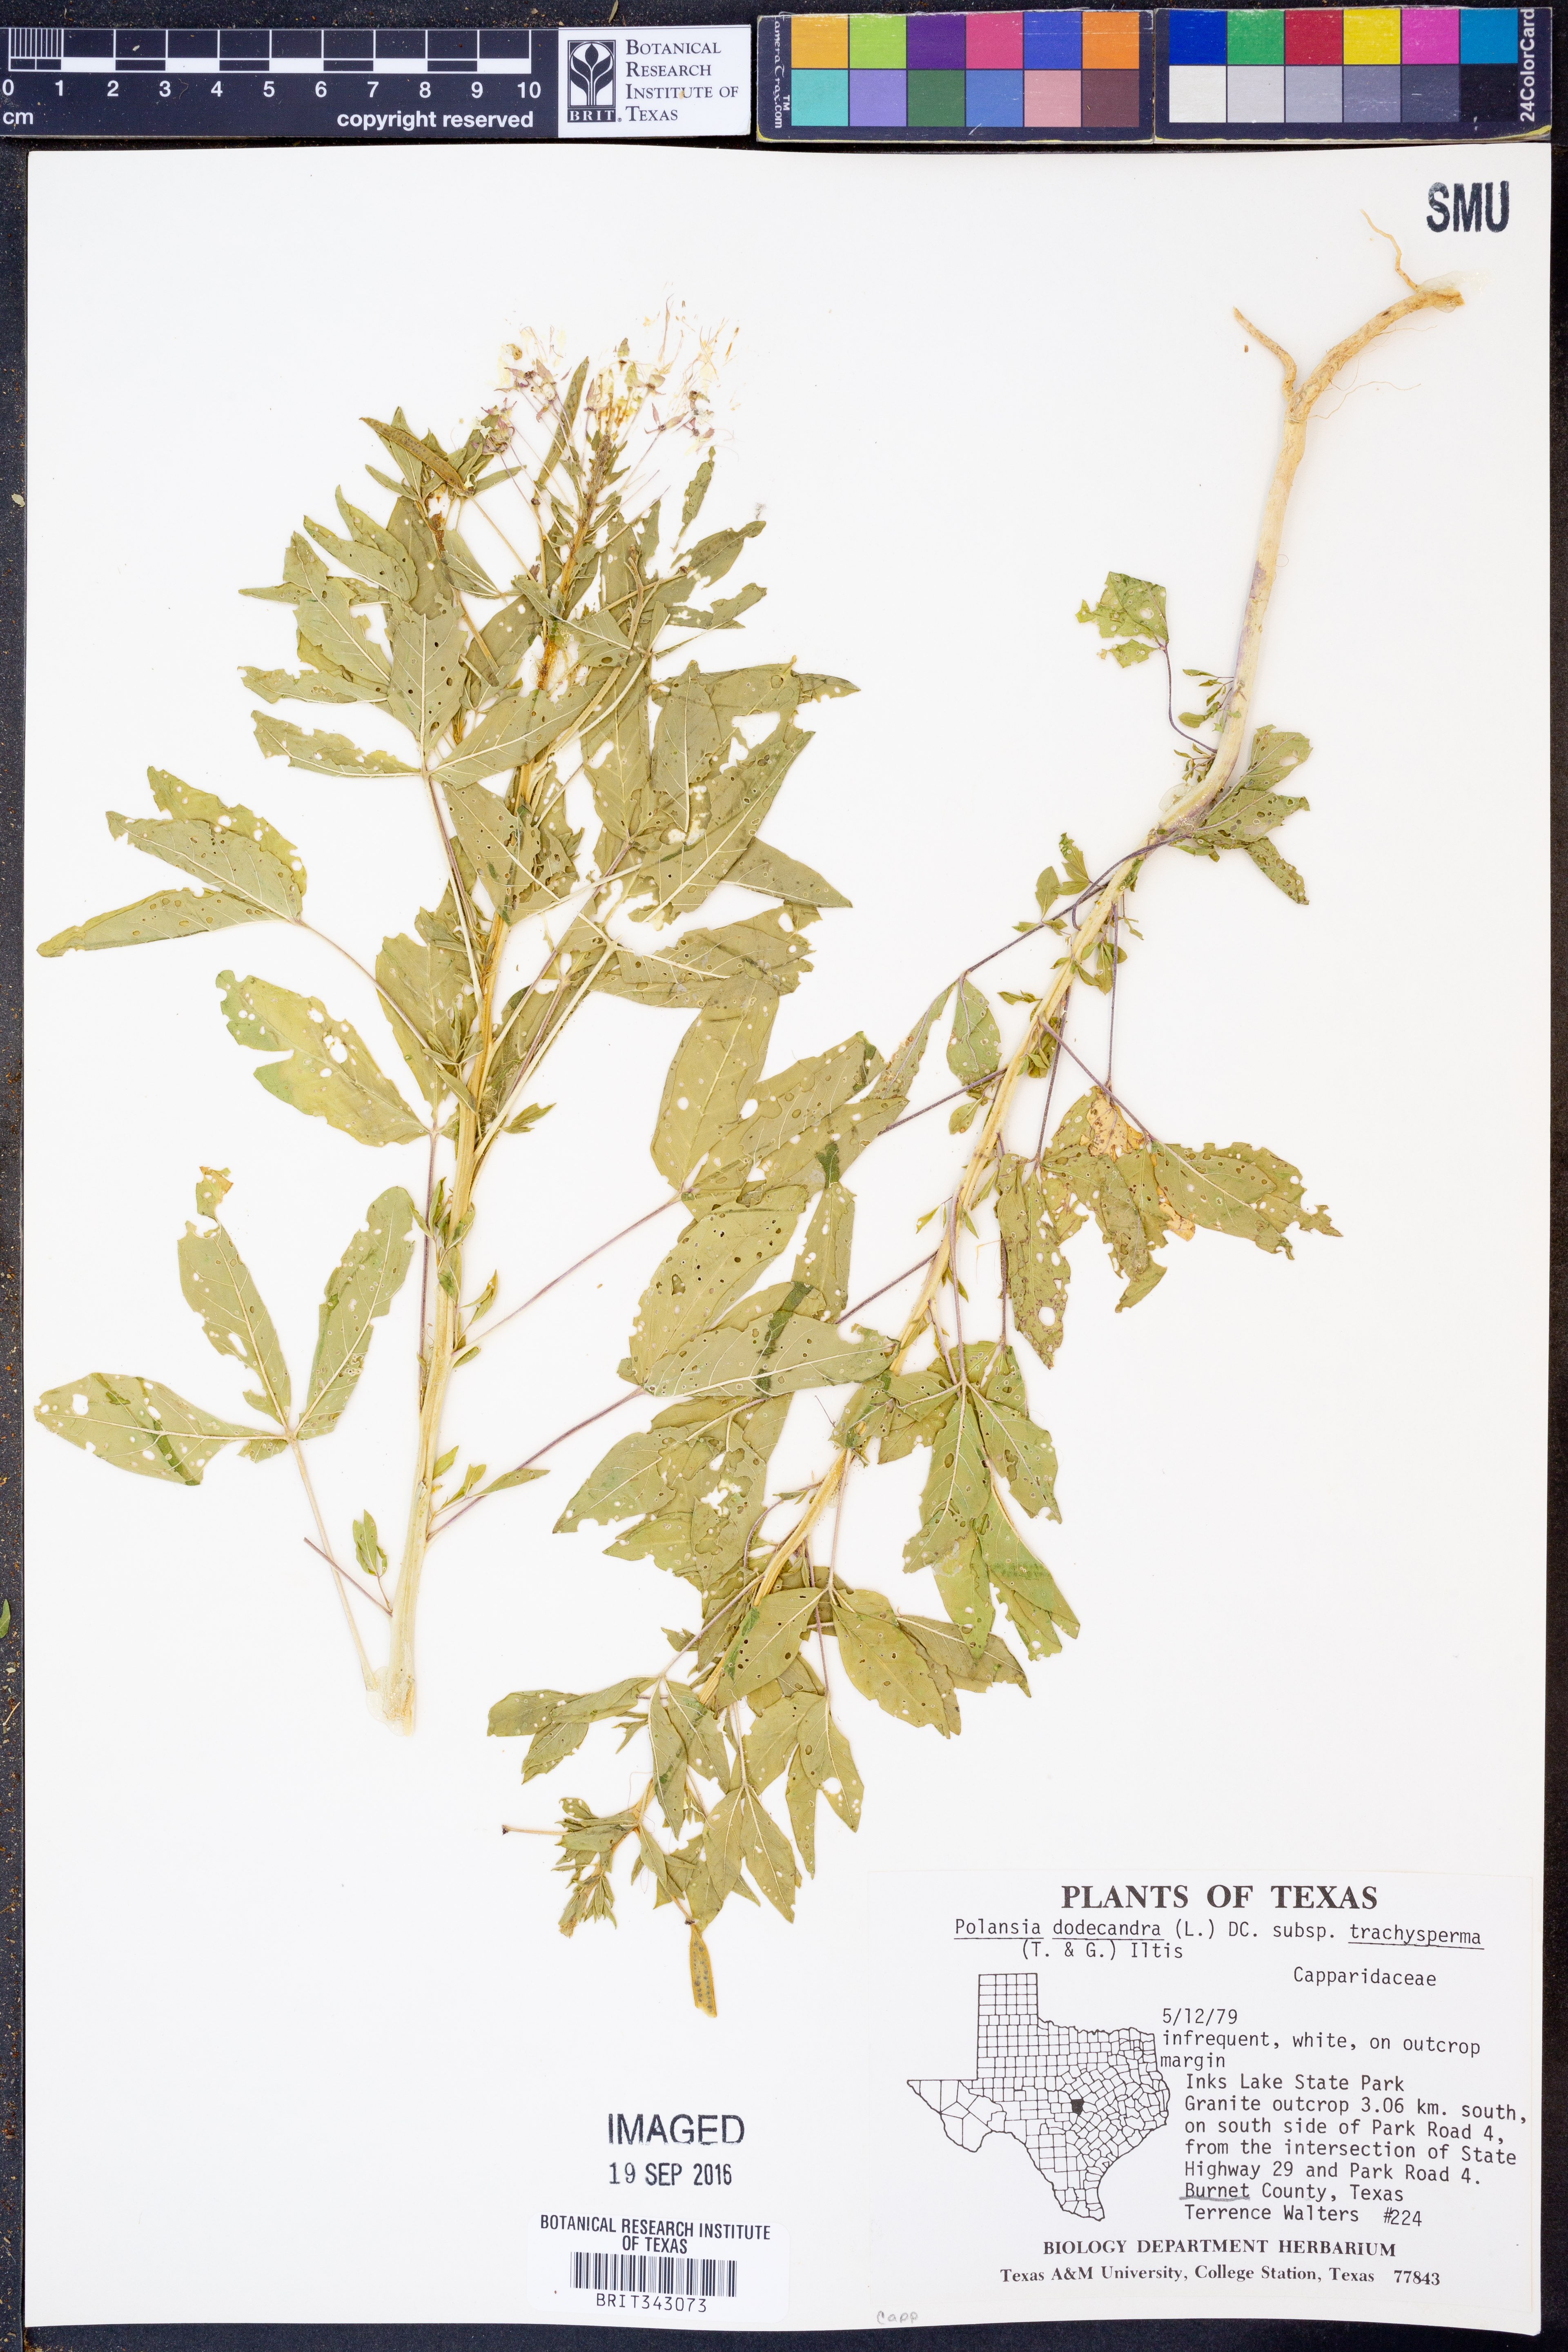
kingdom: Plantae
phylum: Tracheophyta
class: Magnoliopsida
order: Brassicales
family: Cleomaceae
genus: Polanisia
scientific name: Polanisia trachysperma
